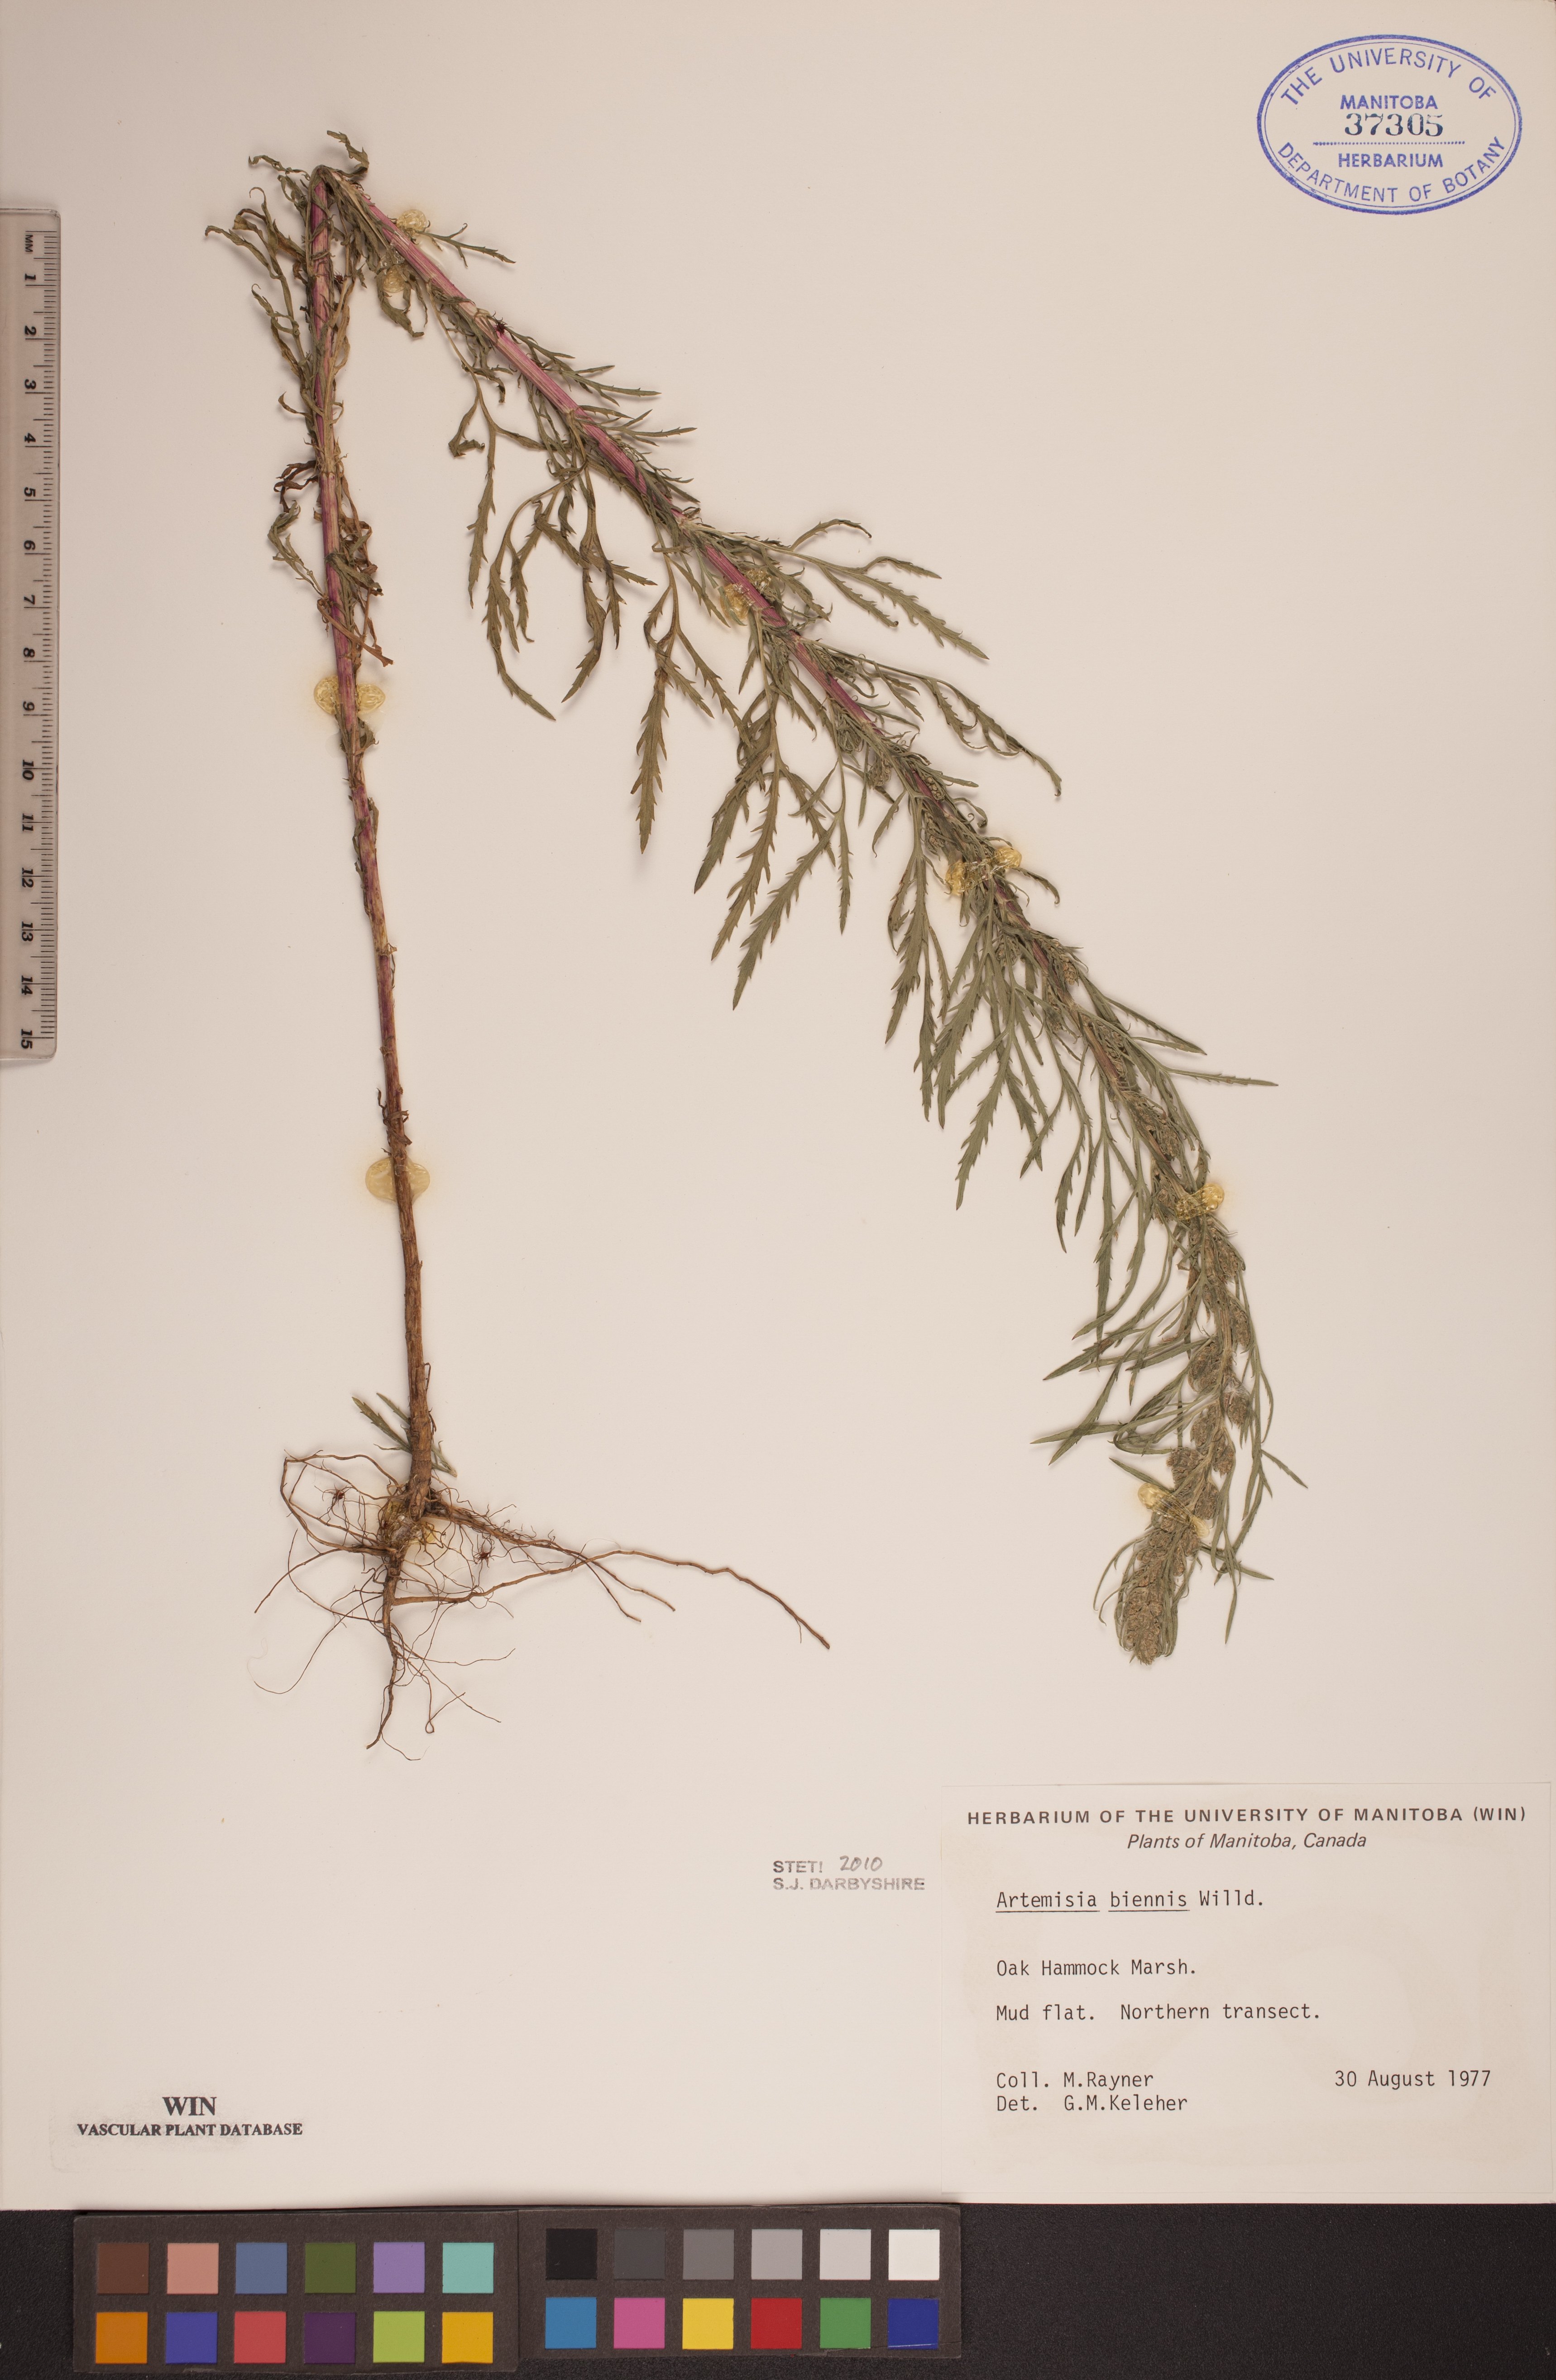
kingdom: Plantae
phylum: Tracheophyta
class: Magnoliopsida
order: Asterales
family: Asteraceae
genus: Artemisia
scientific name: Artemisia biennis
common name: Biennial wormwood
